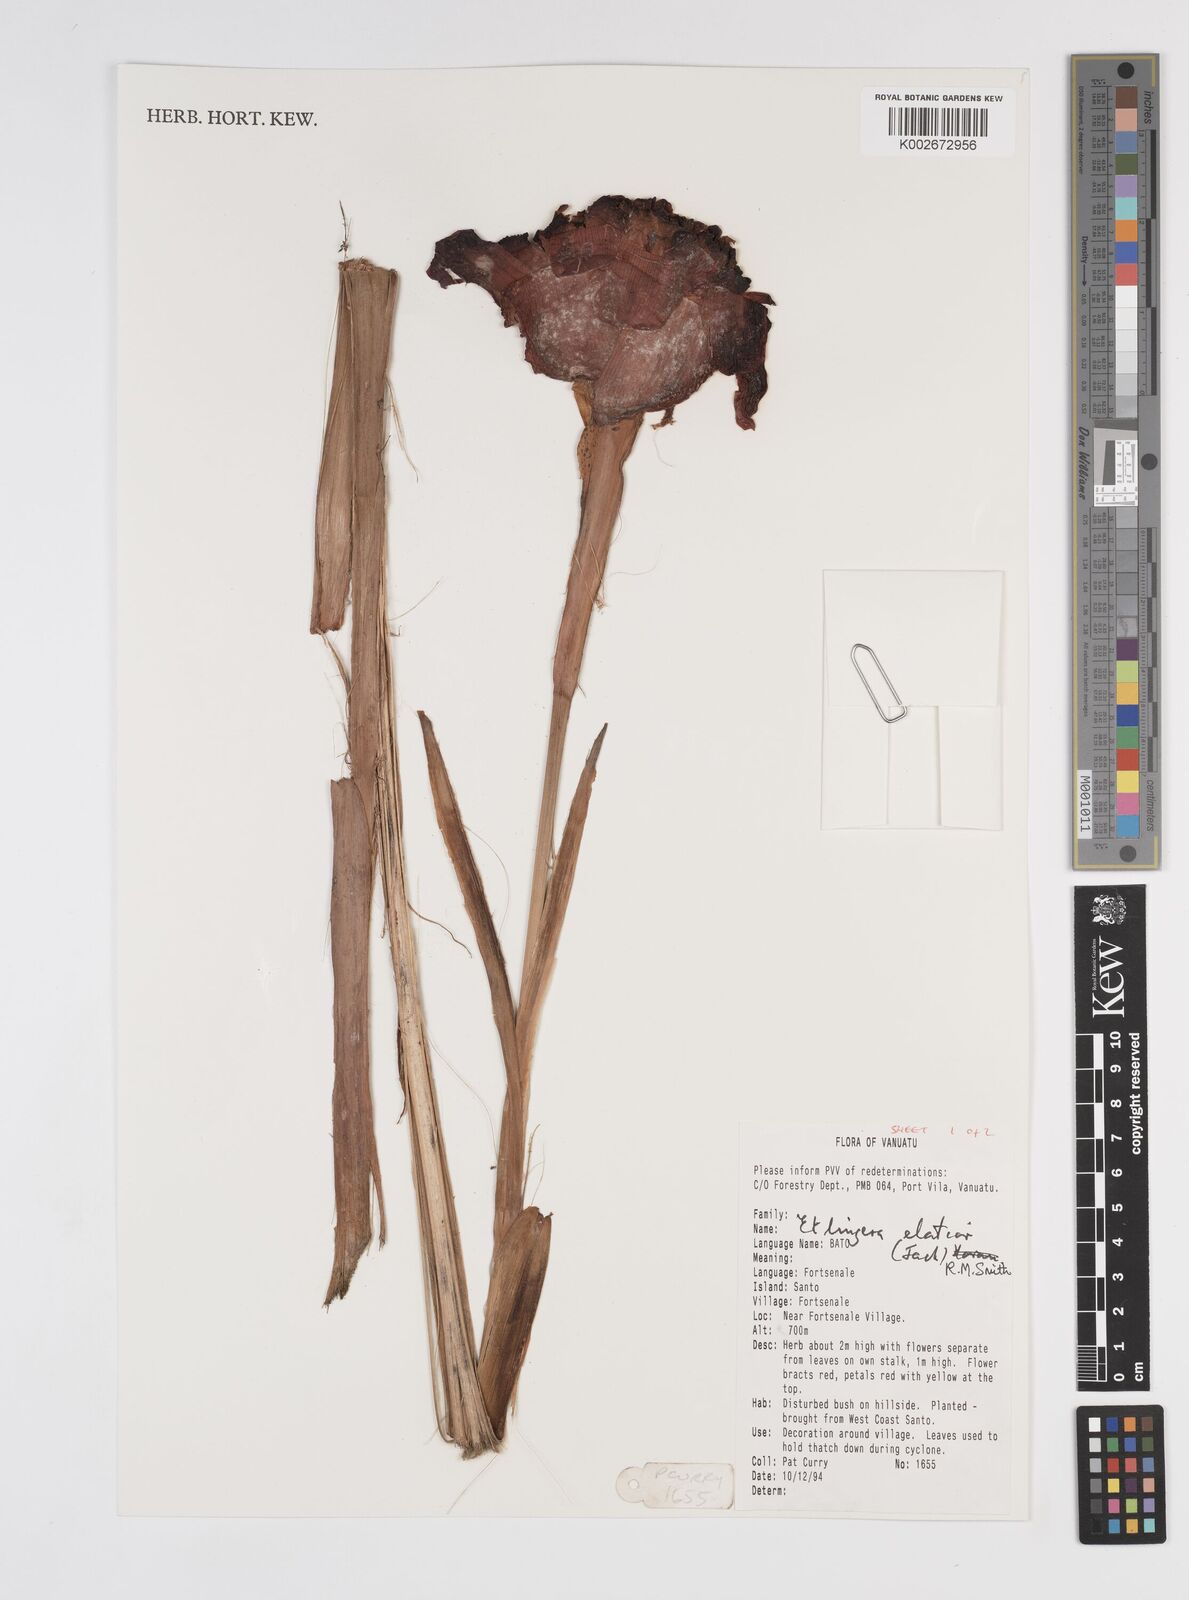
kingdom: Plantae
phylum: Tracheophyta
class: Liliopsida
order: Zingiberales
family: Zingiberaceae
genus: Etlingera
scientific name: Etlingera elatior
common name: Philippine waxflower
